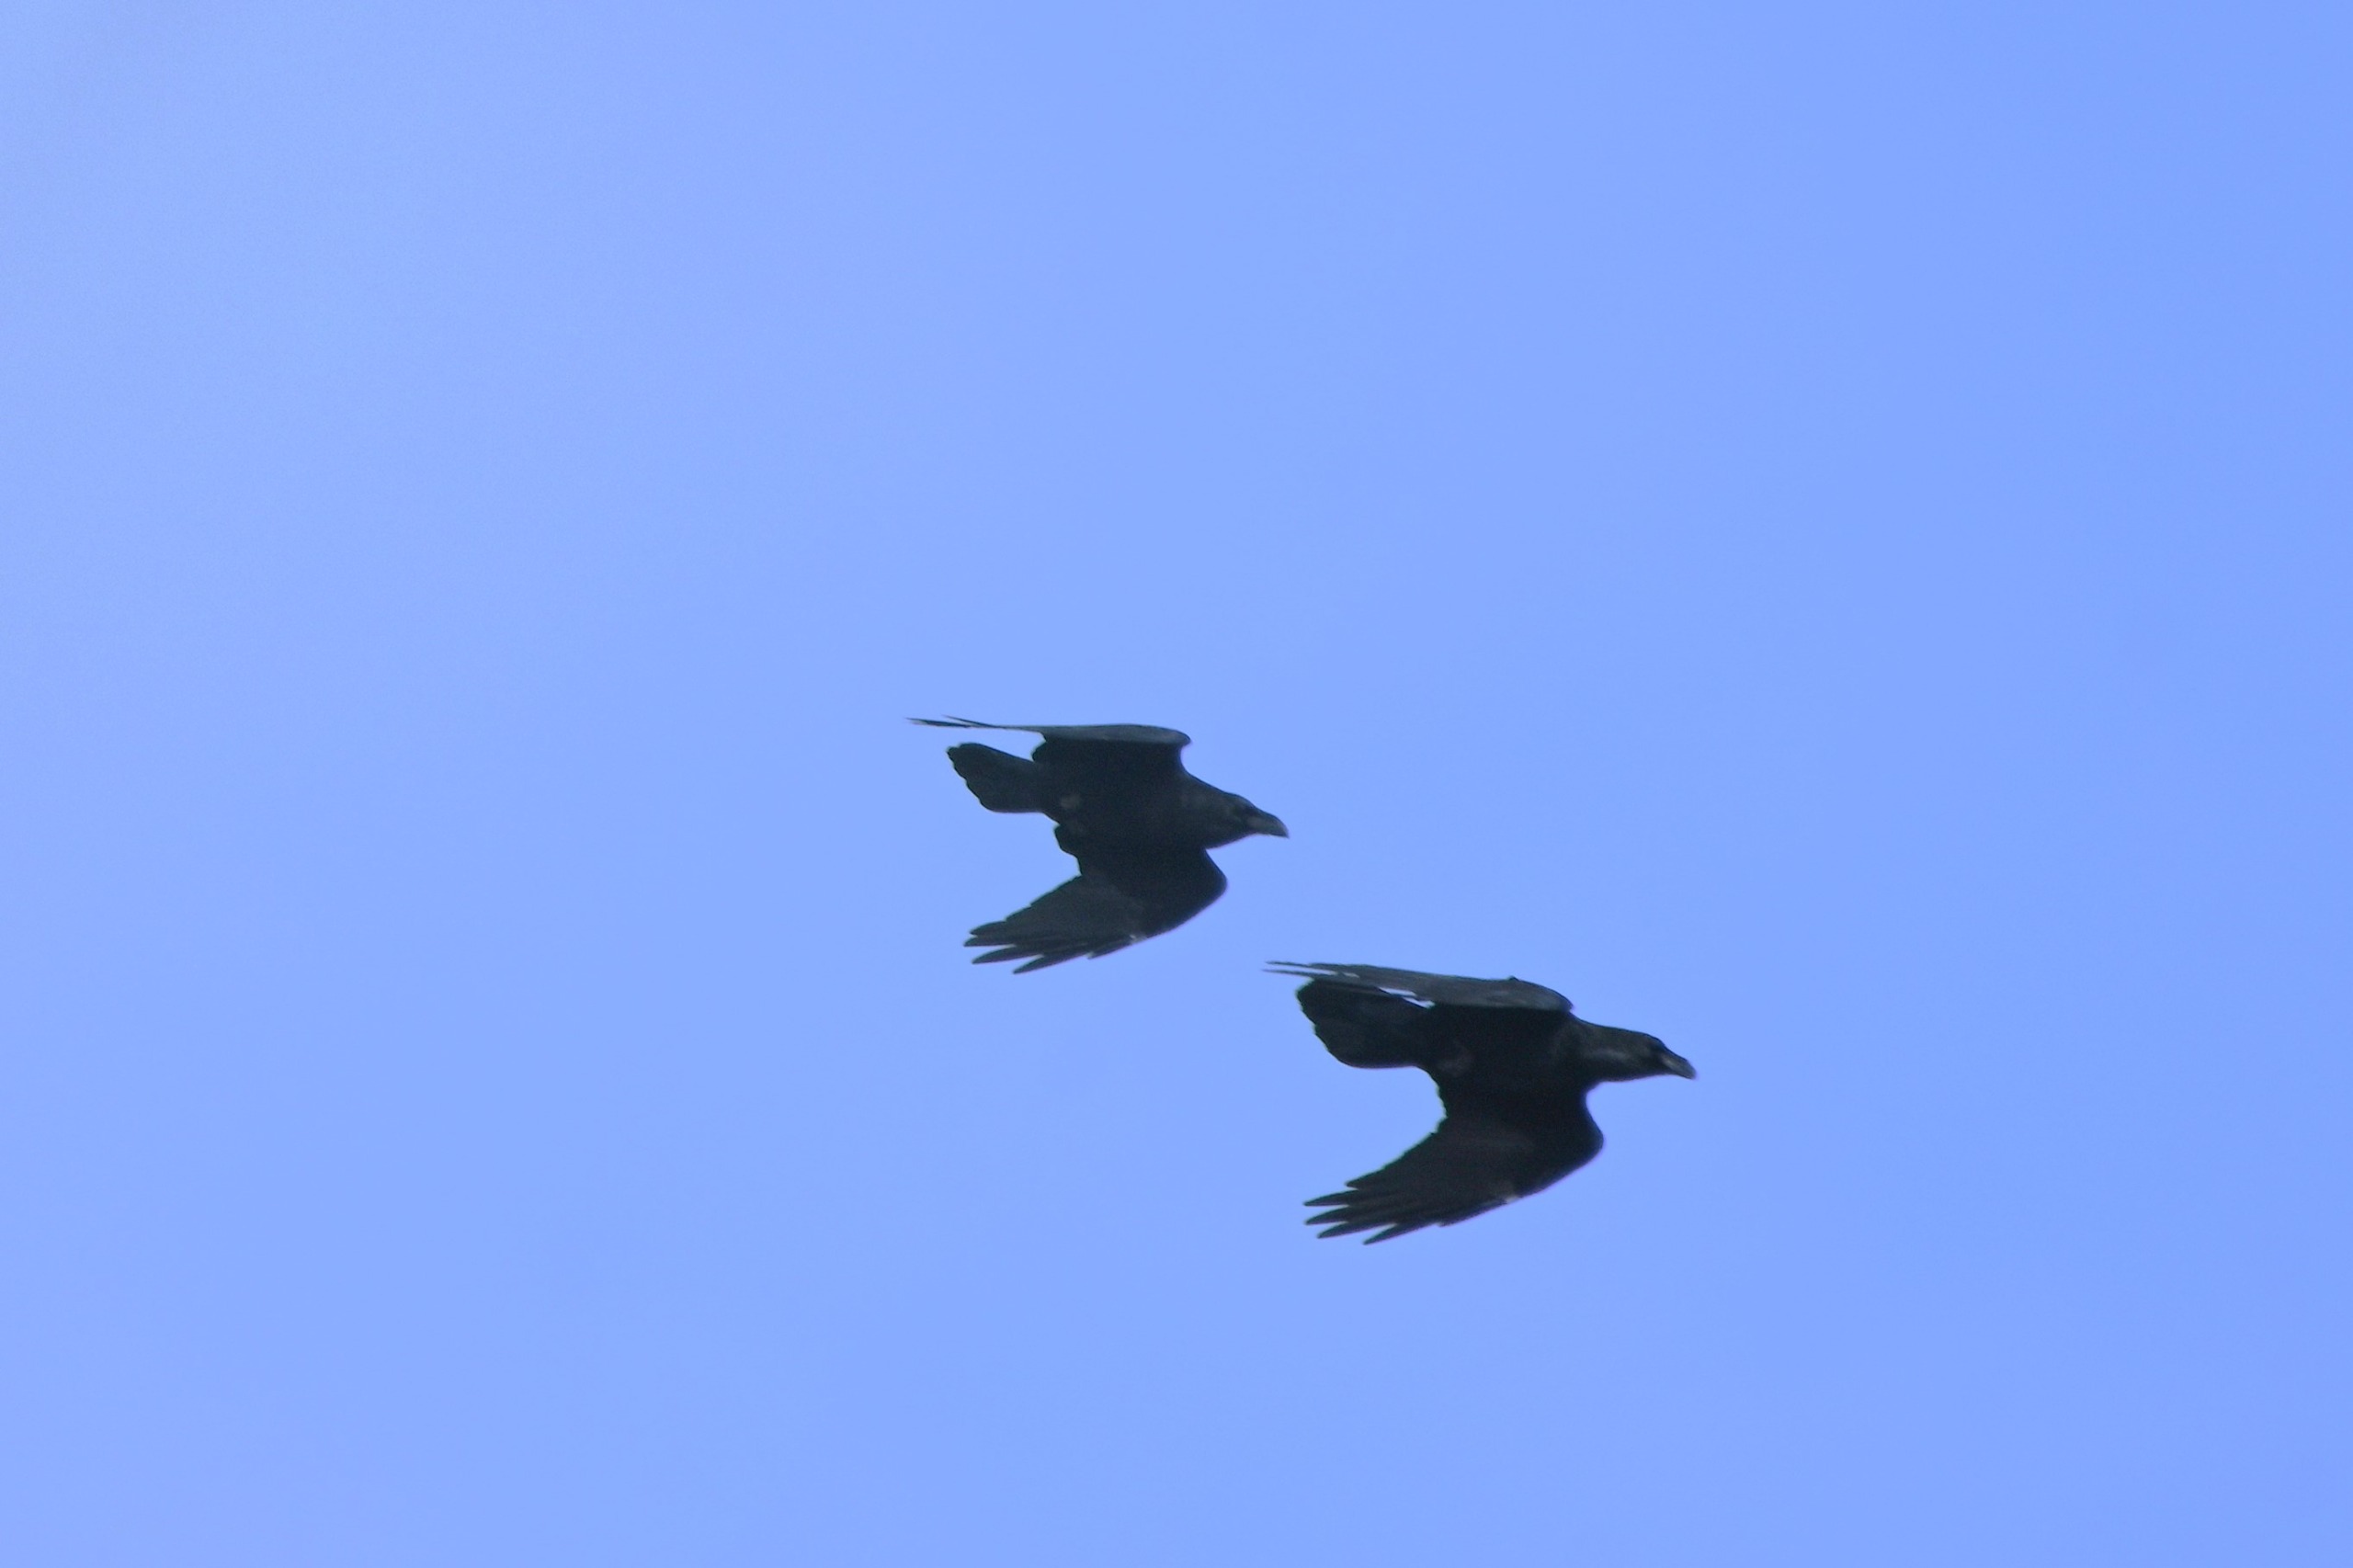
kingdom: Animalia
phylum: Chordata
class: Aves
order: Passeriformes
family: Corvidae
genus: Corvus
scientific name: Corvus corax
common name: Ravn
